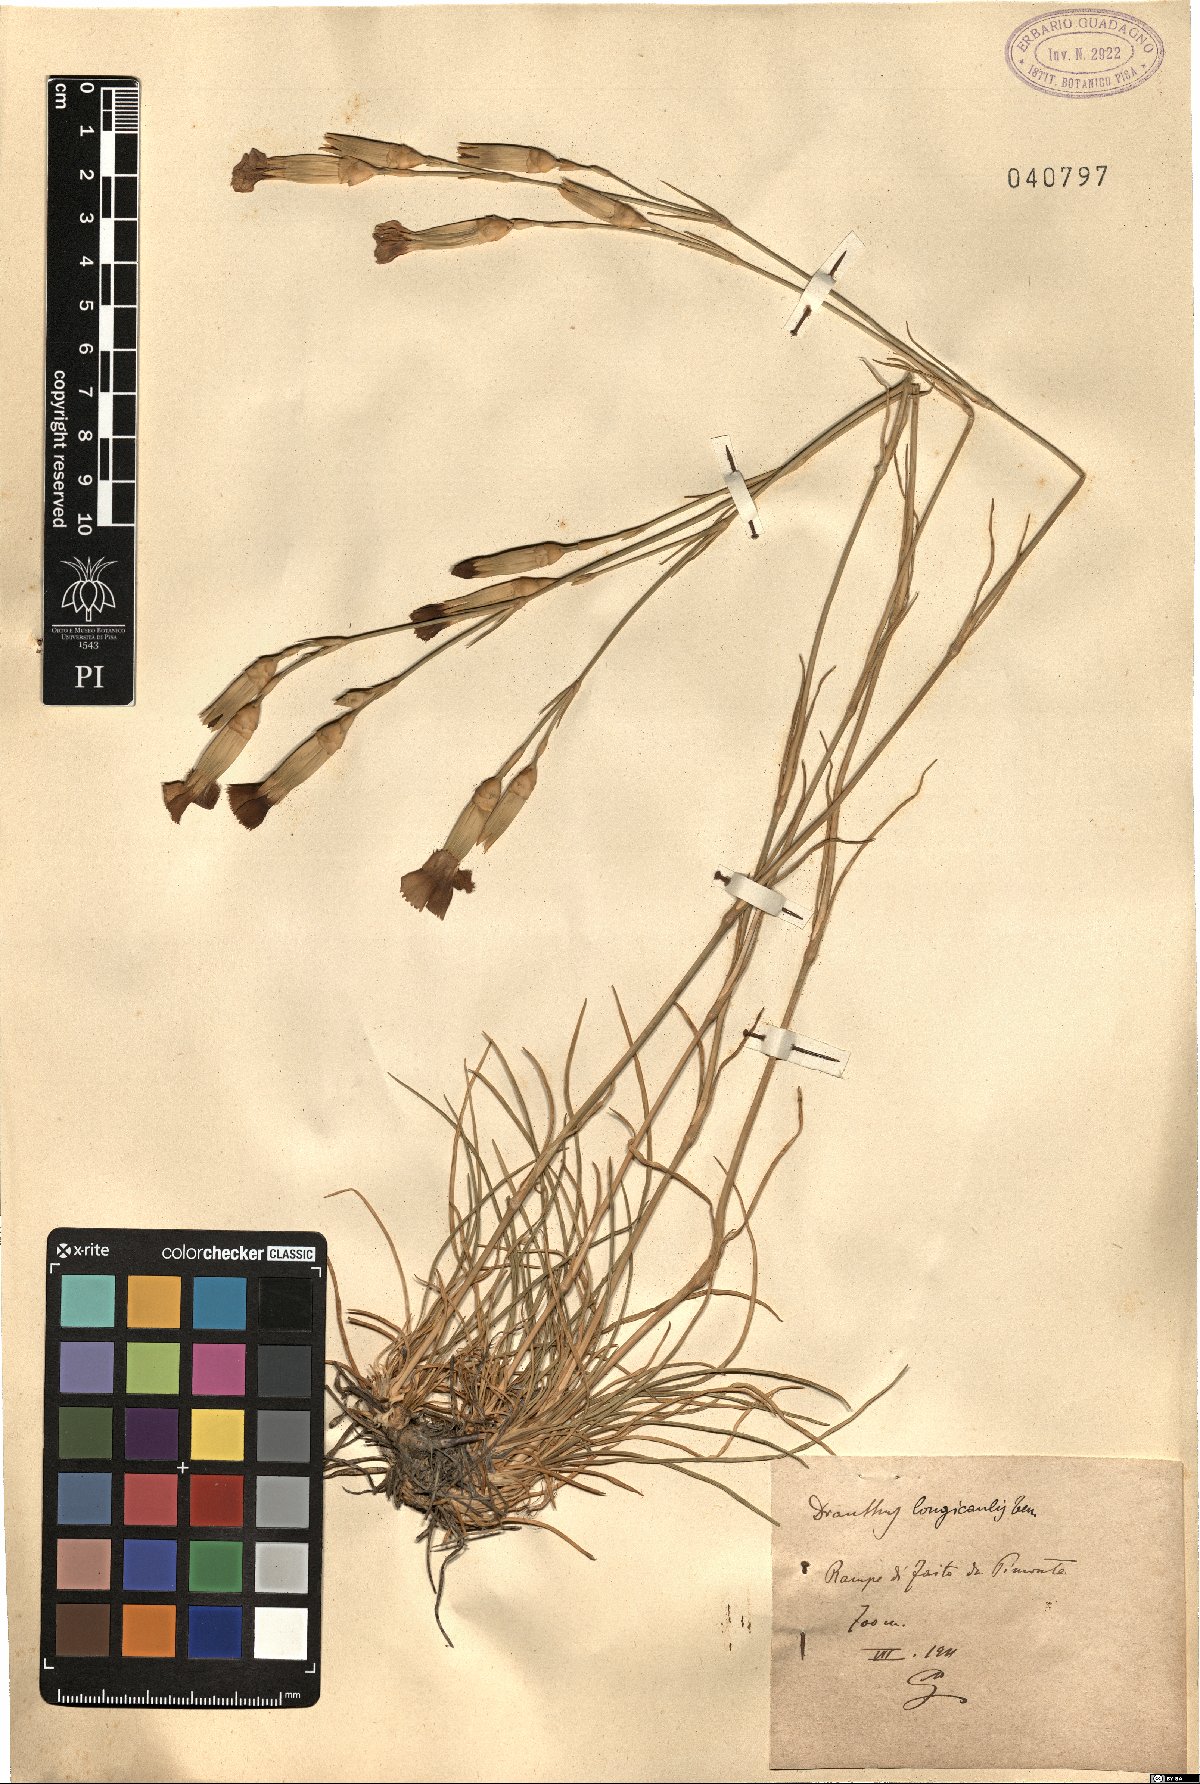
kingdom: Plantae
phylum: Tracheophyta
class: Magnoliopsida
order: Caryophyllales
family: Caryophyllaceae
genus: Dianthus
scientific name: Dianthus virgineus
